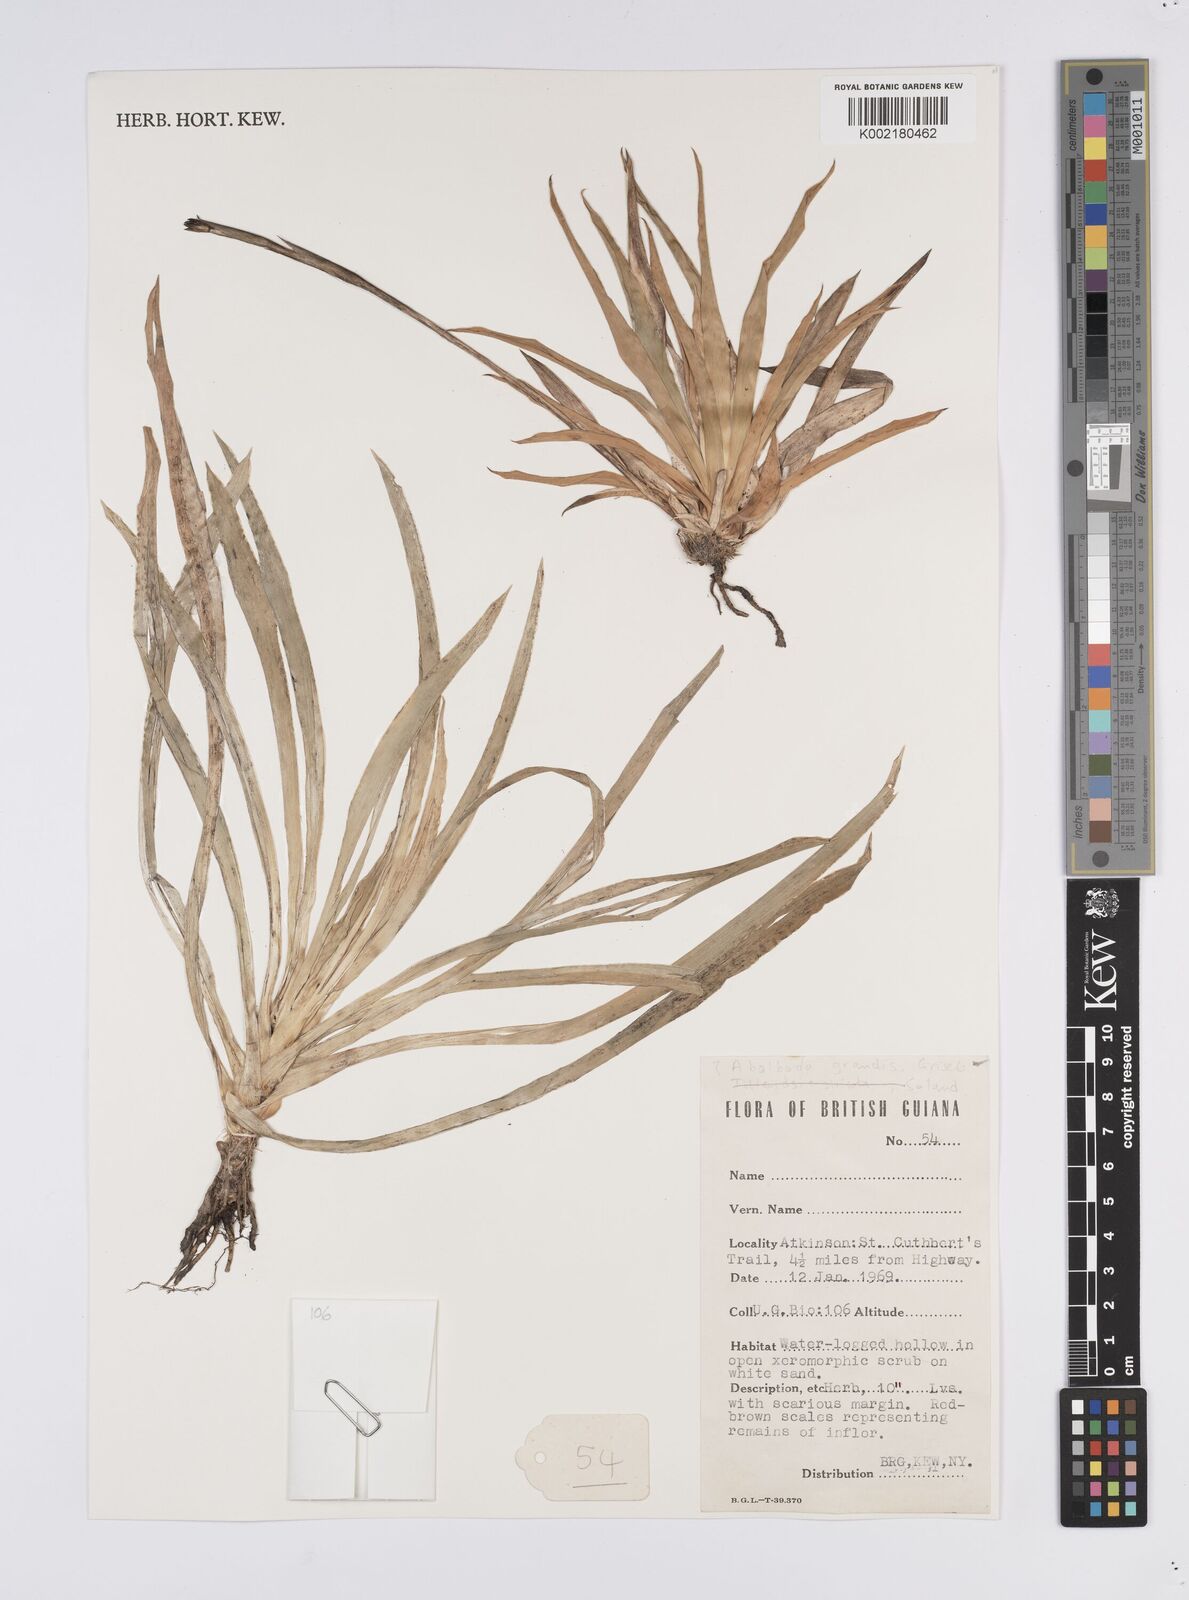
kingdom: Plantae
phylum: Tracheophyta
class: Liliopsida
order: Poales
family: Xyridaceae
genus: Abolboda
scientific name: Abolboda grandis
